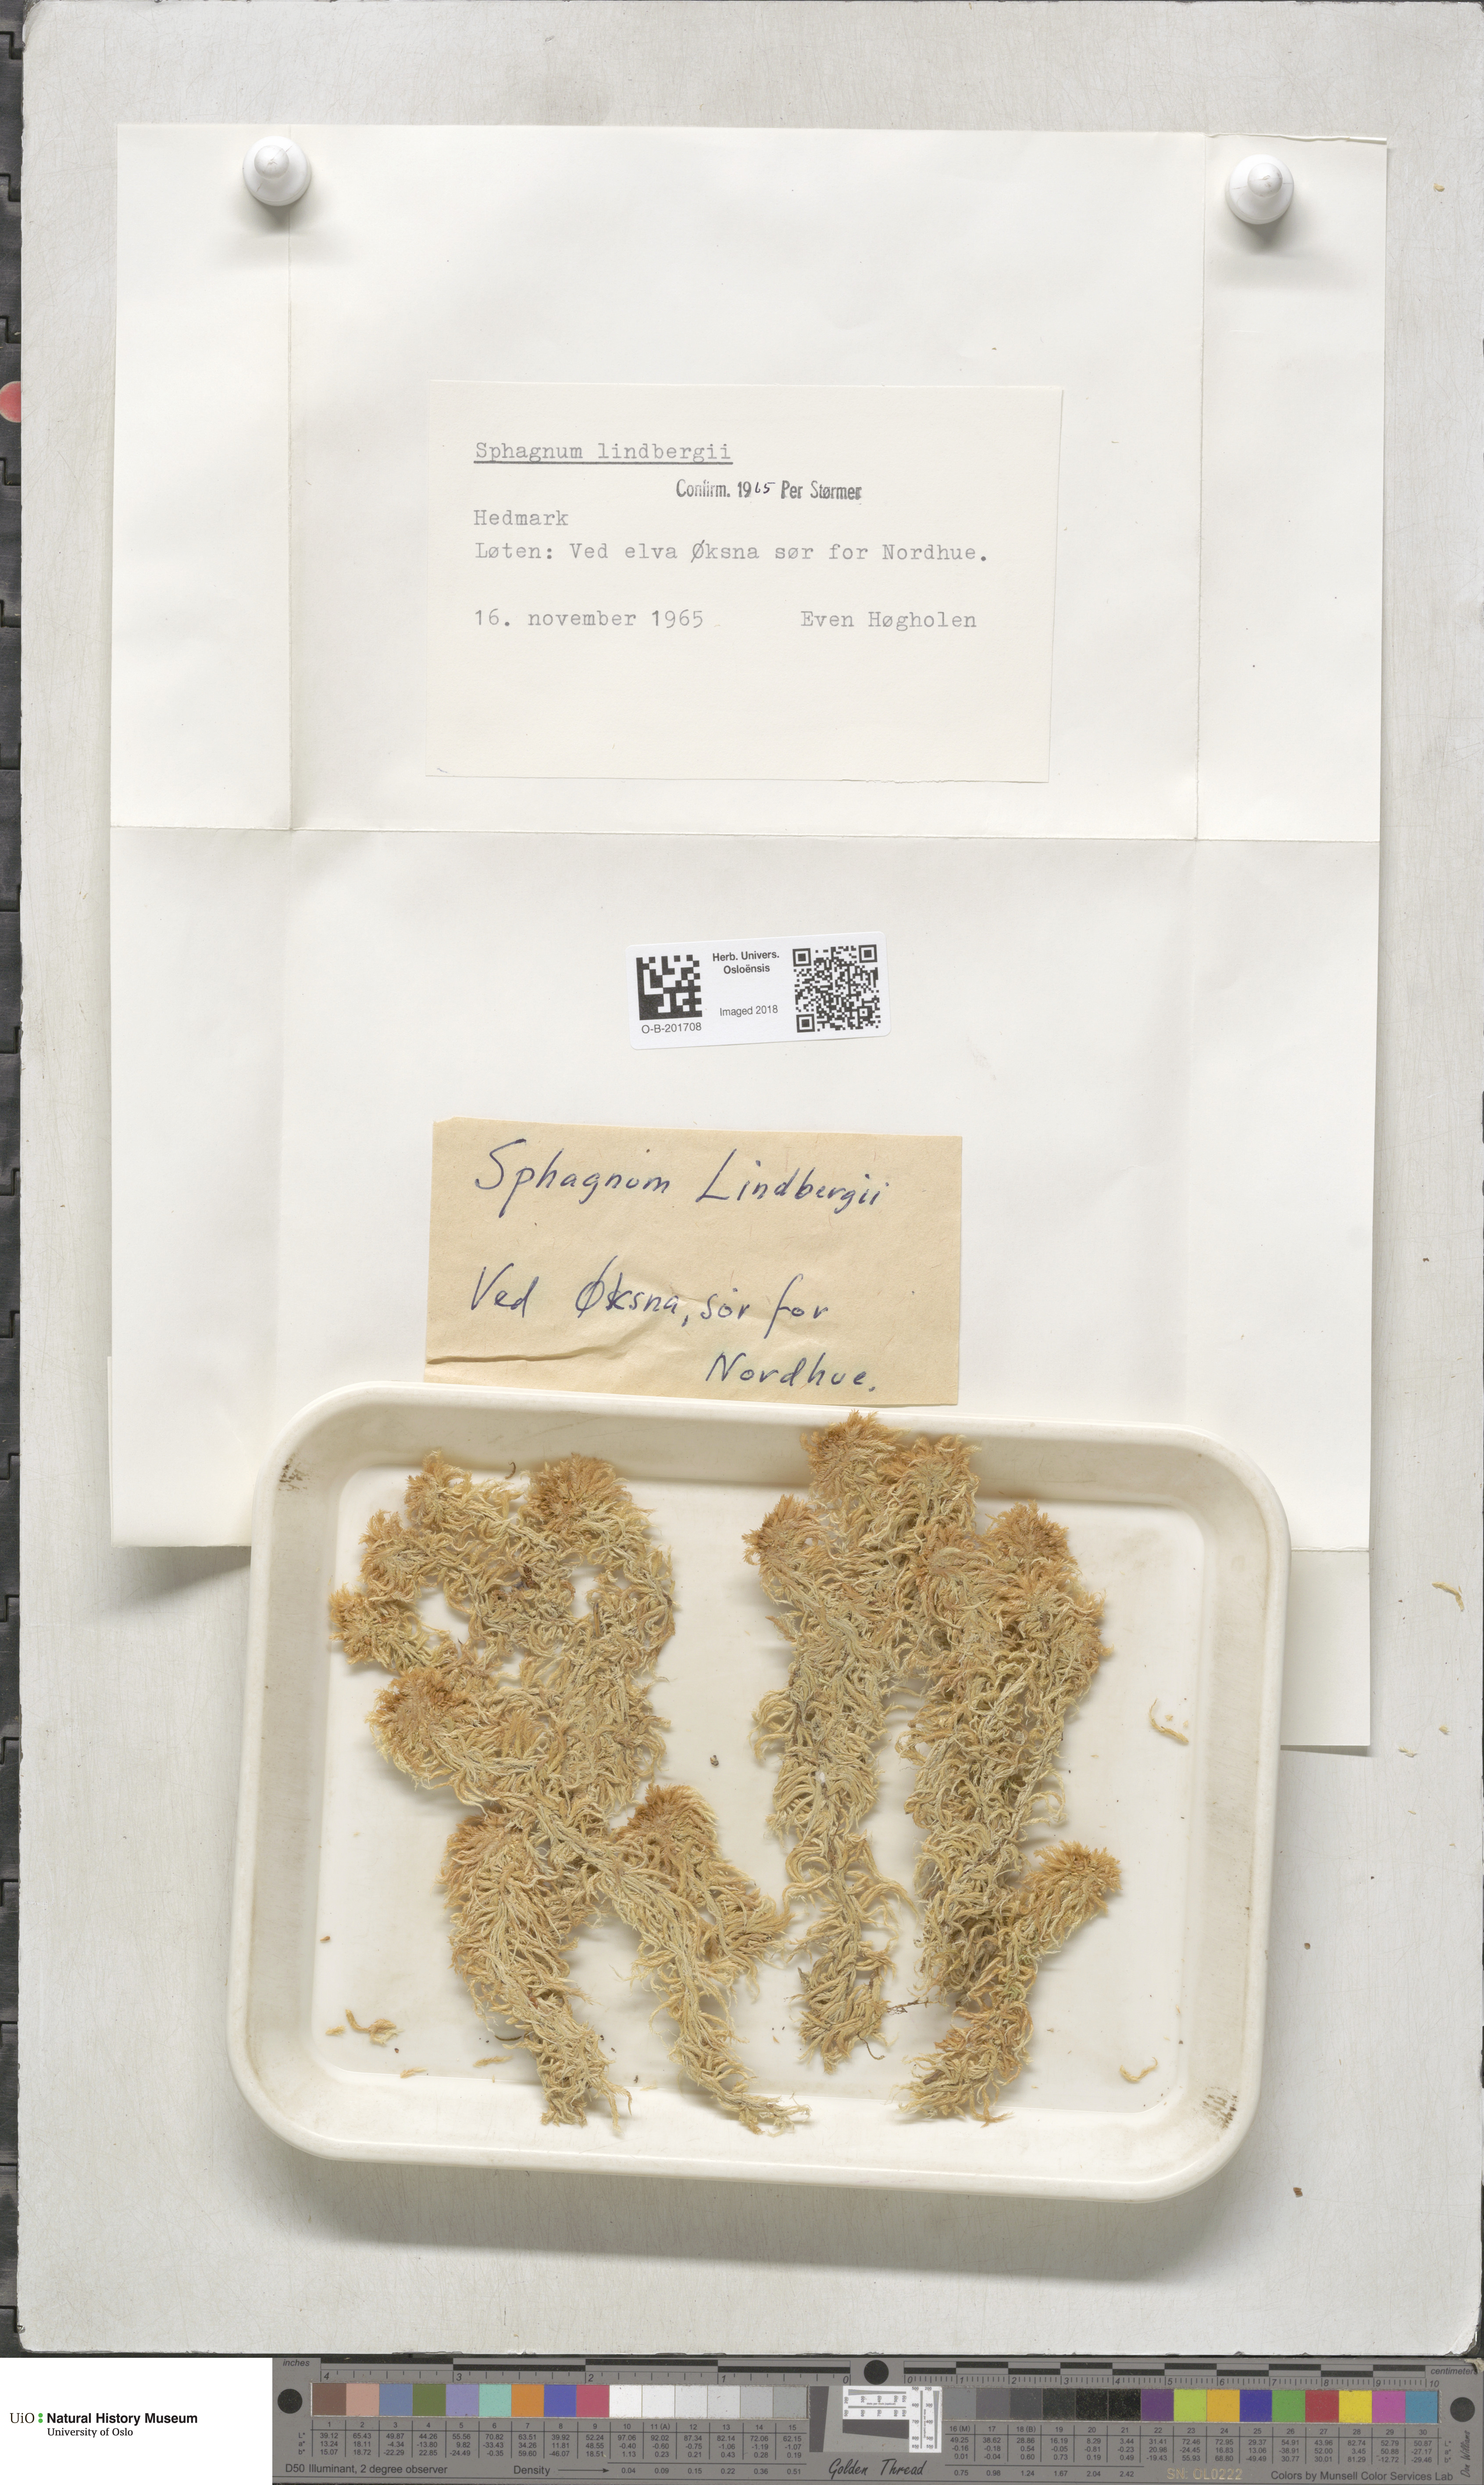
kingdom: Plantae
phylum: Bryophyta
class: Sphagnopsida
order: Sphagnales
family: Sphagnaceae
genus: Sphagnum
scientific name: Sphagnum lindbergii
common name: Lindberg's peat moss
